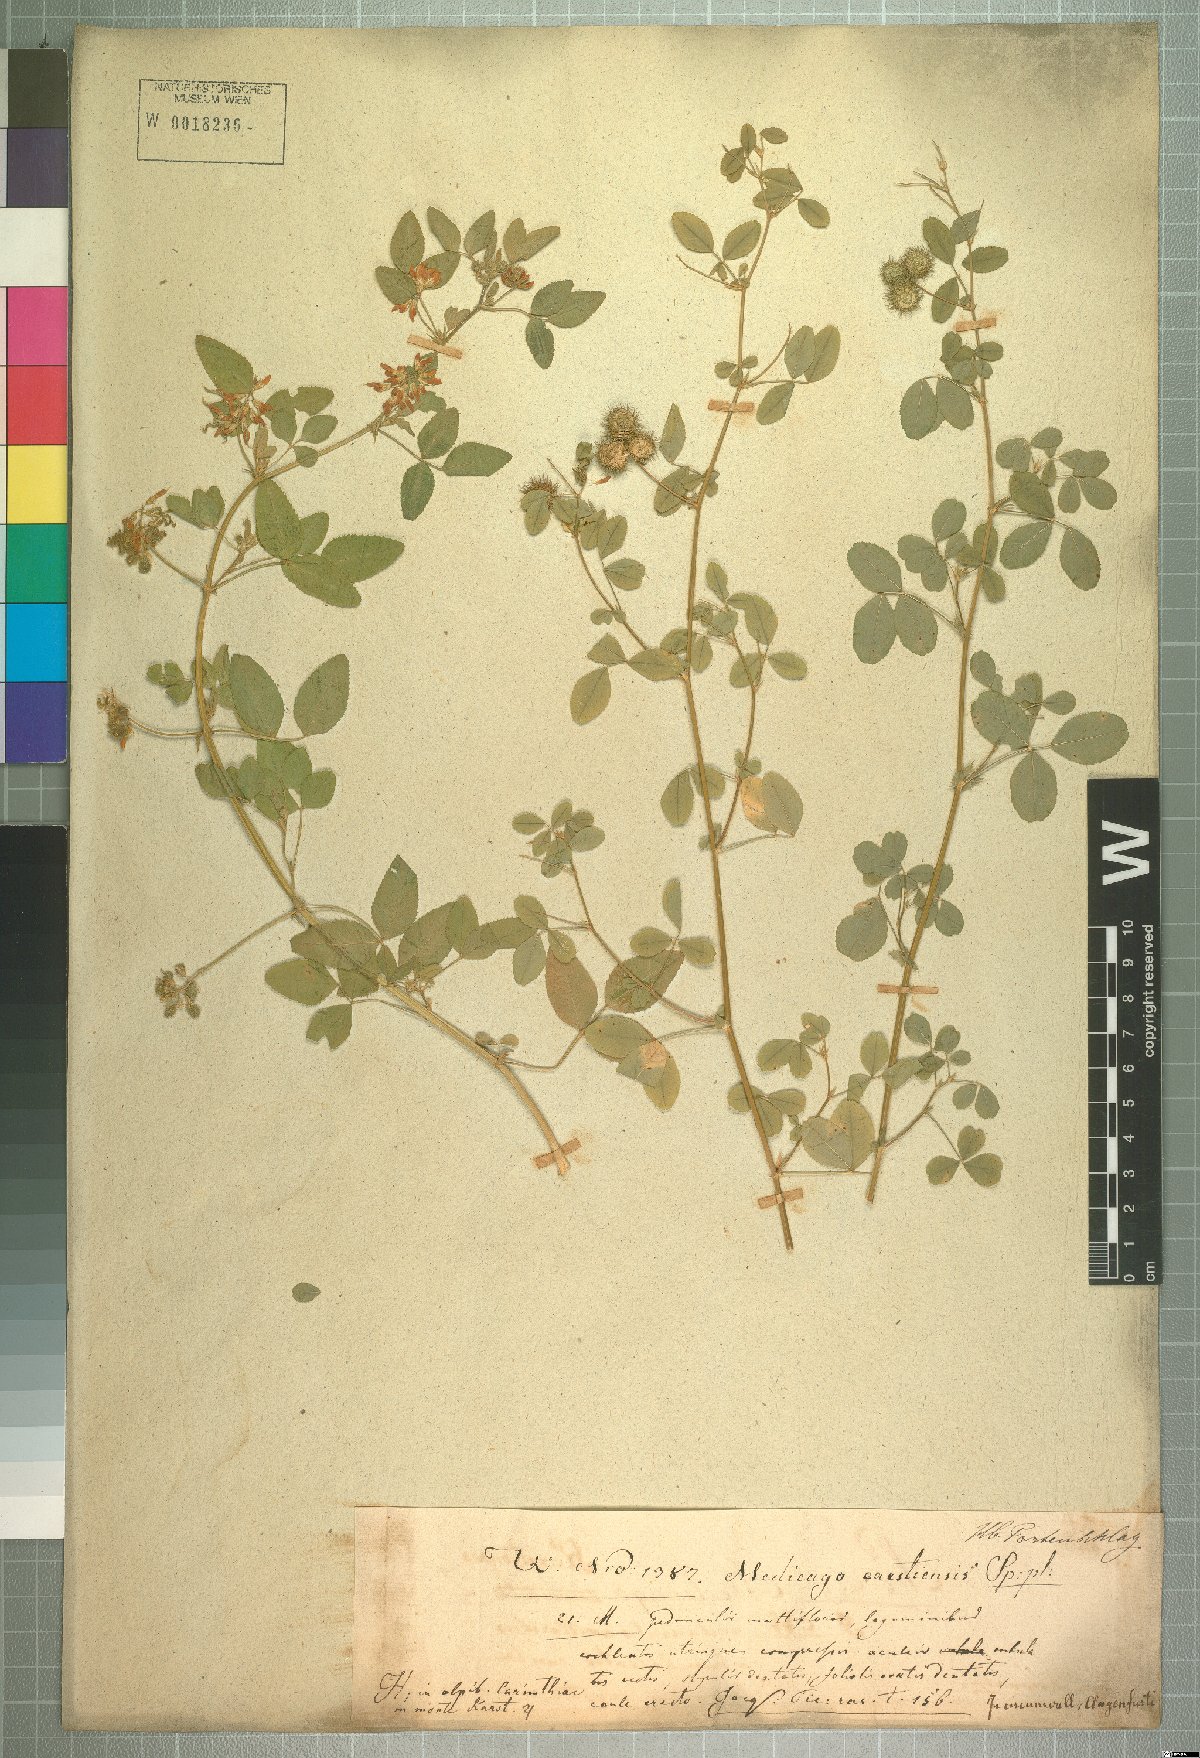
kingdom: Plantae
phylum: Tracheophyta
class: Magnoliopsida
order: Fabales
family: Fabaceae
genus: Medicago
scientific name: Medicago carstiensis
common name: Creeping-rooted medic
